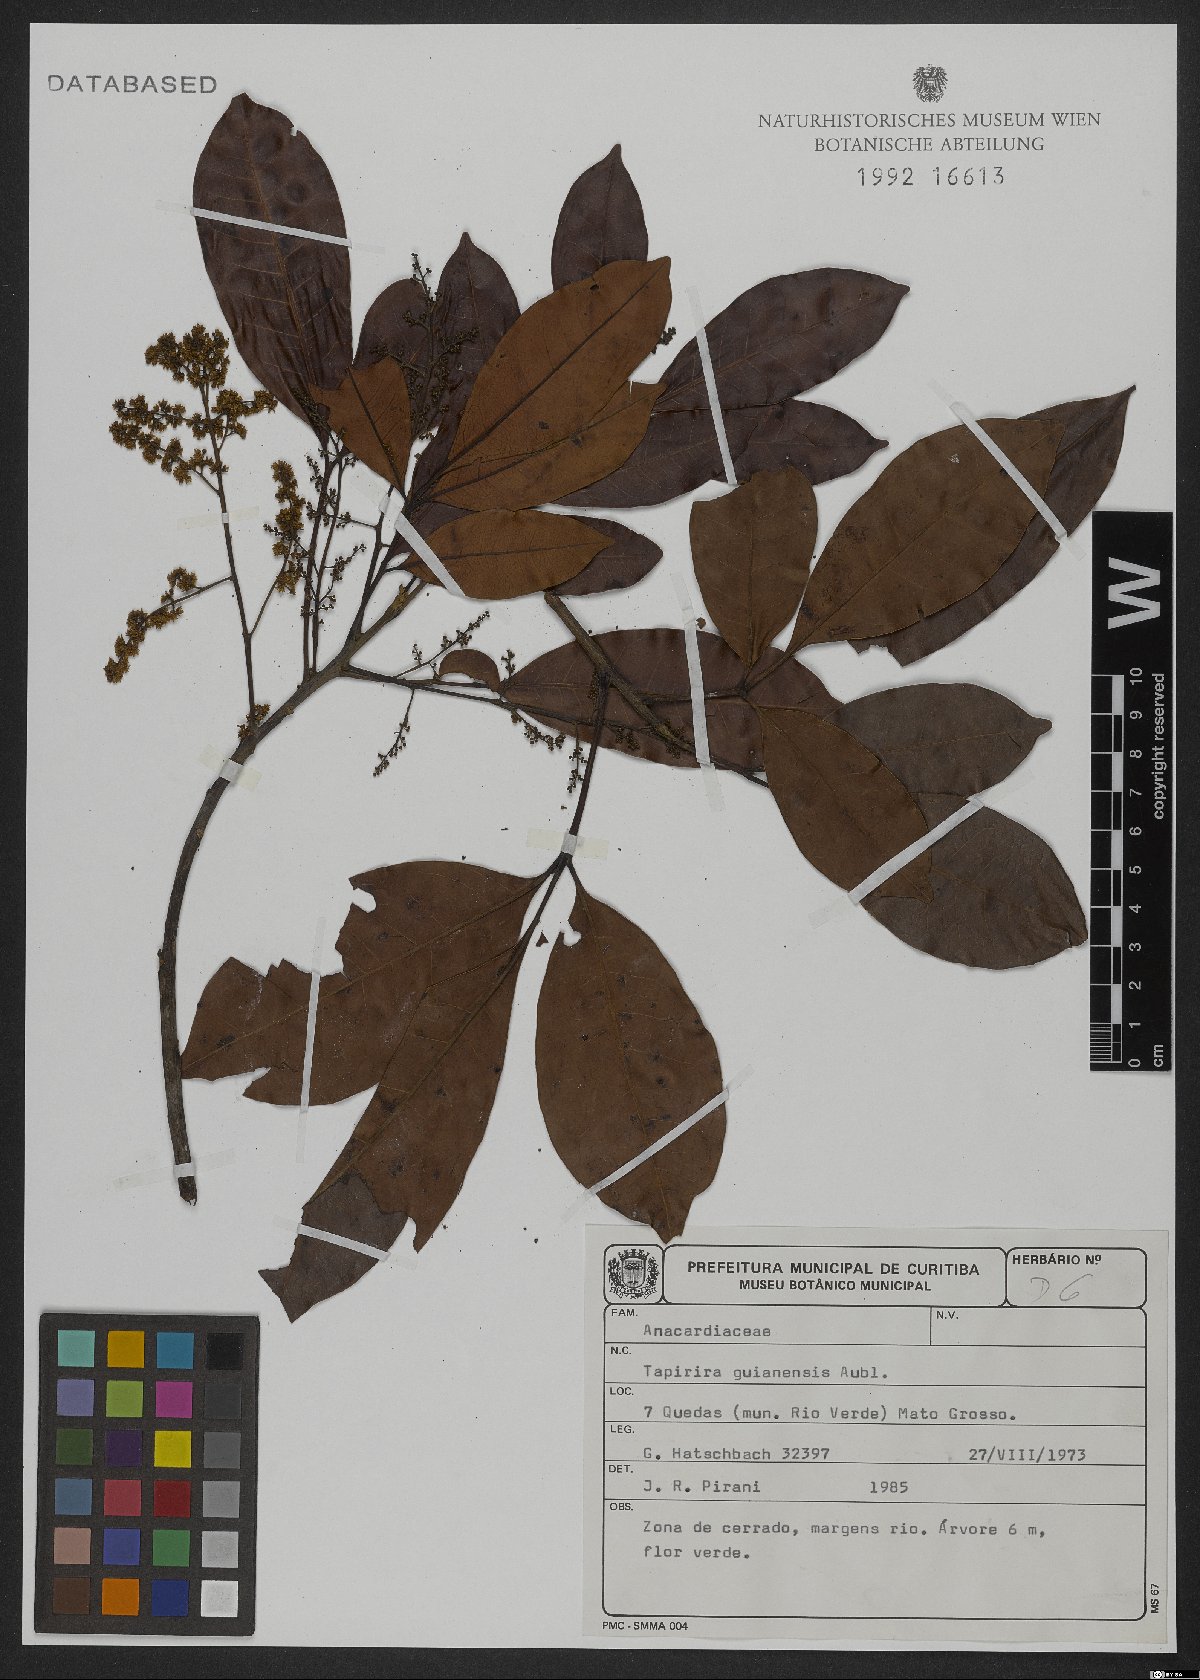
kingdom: Plantae
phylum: Tracheophyta
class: Magnoliopsida
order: Sapindales
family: Anacardiaceae
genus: Tapirira
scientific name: Tapirira guianensis
